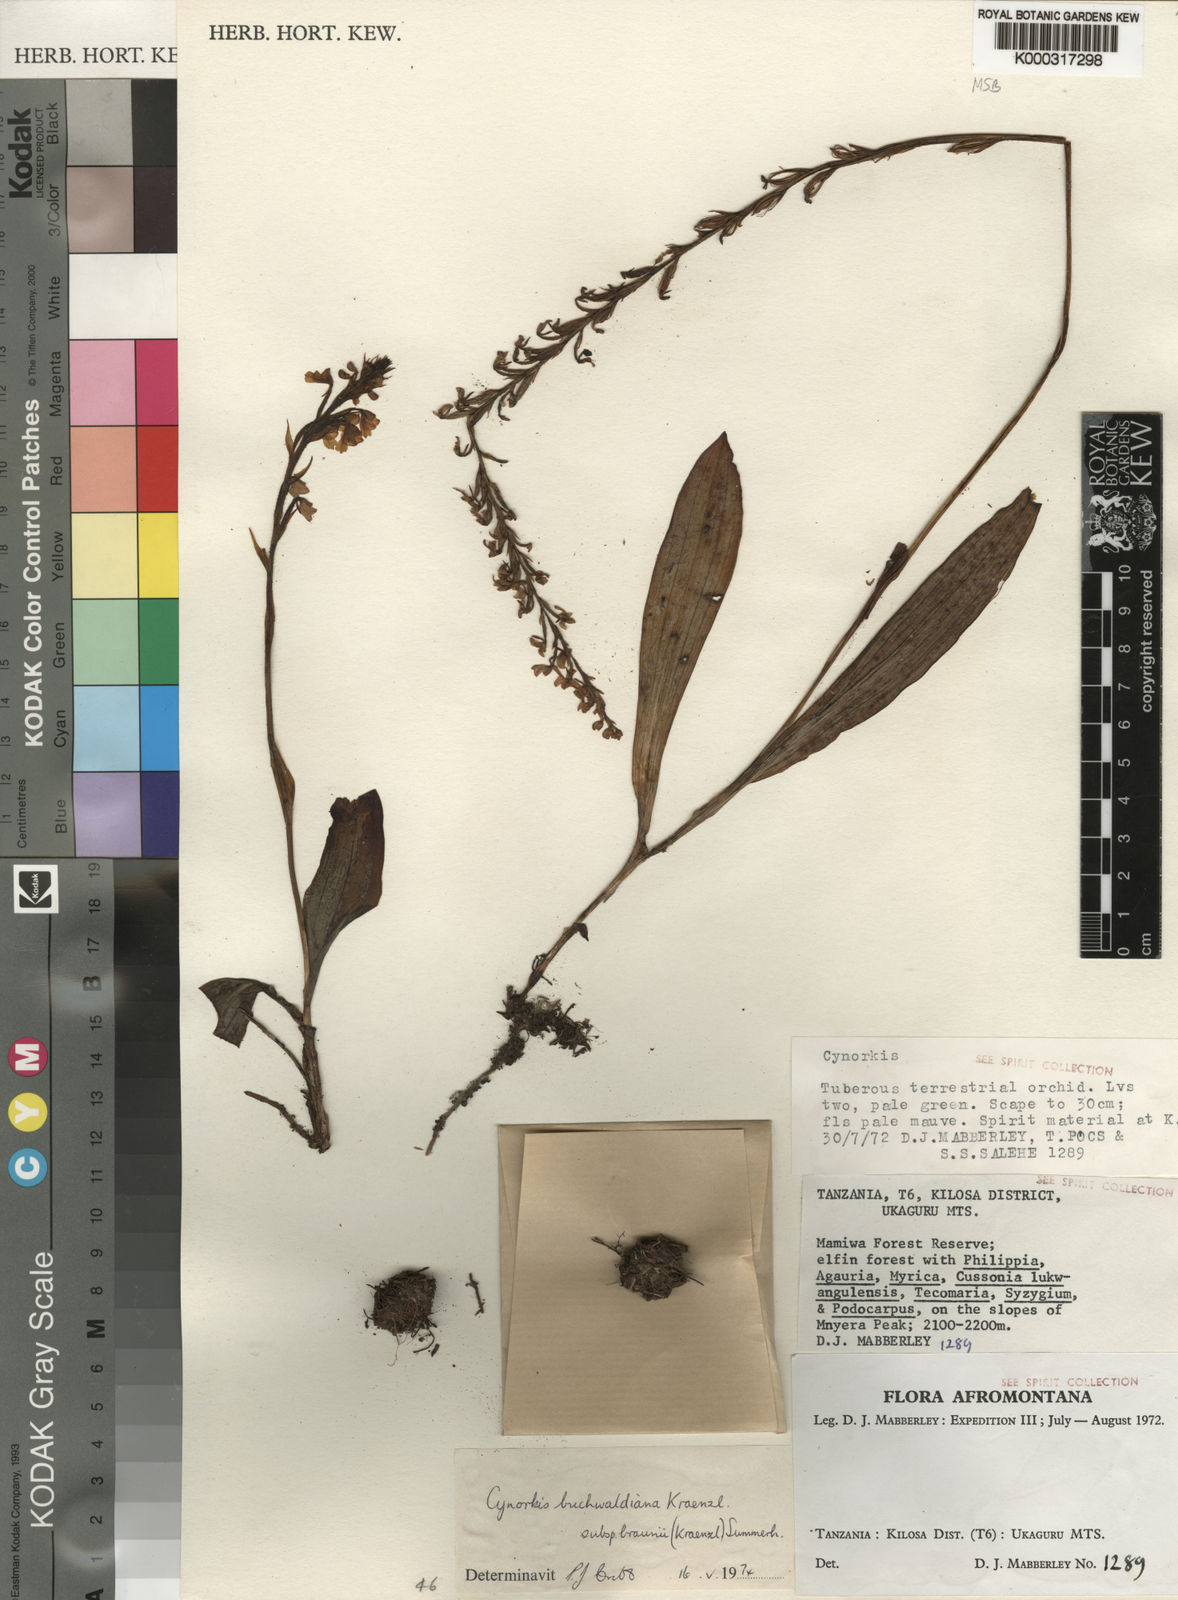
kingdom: Plantae
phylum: Tracheophyta
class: Liliopsida
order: Asparagales
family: Orchidaceae
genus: Cynorkis
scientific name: Cynorkis buchwaldiana
